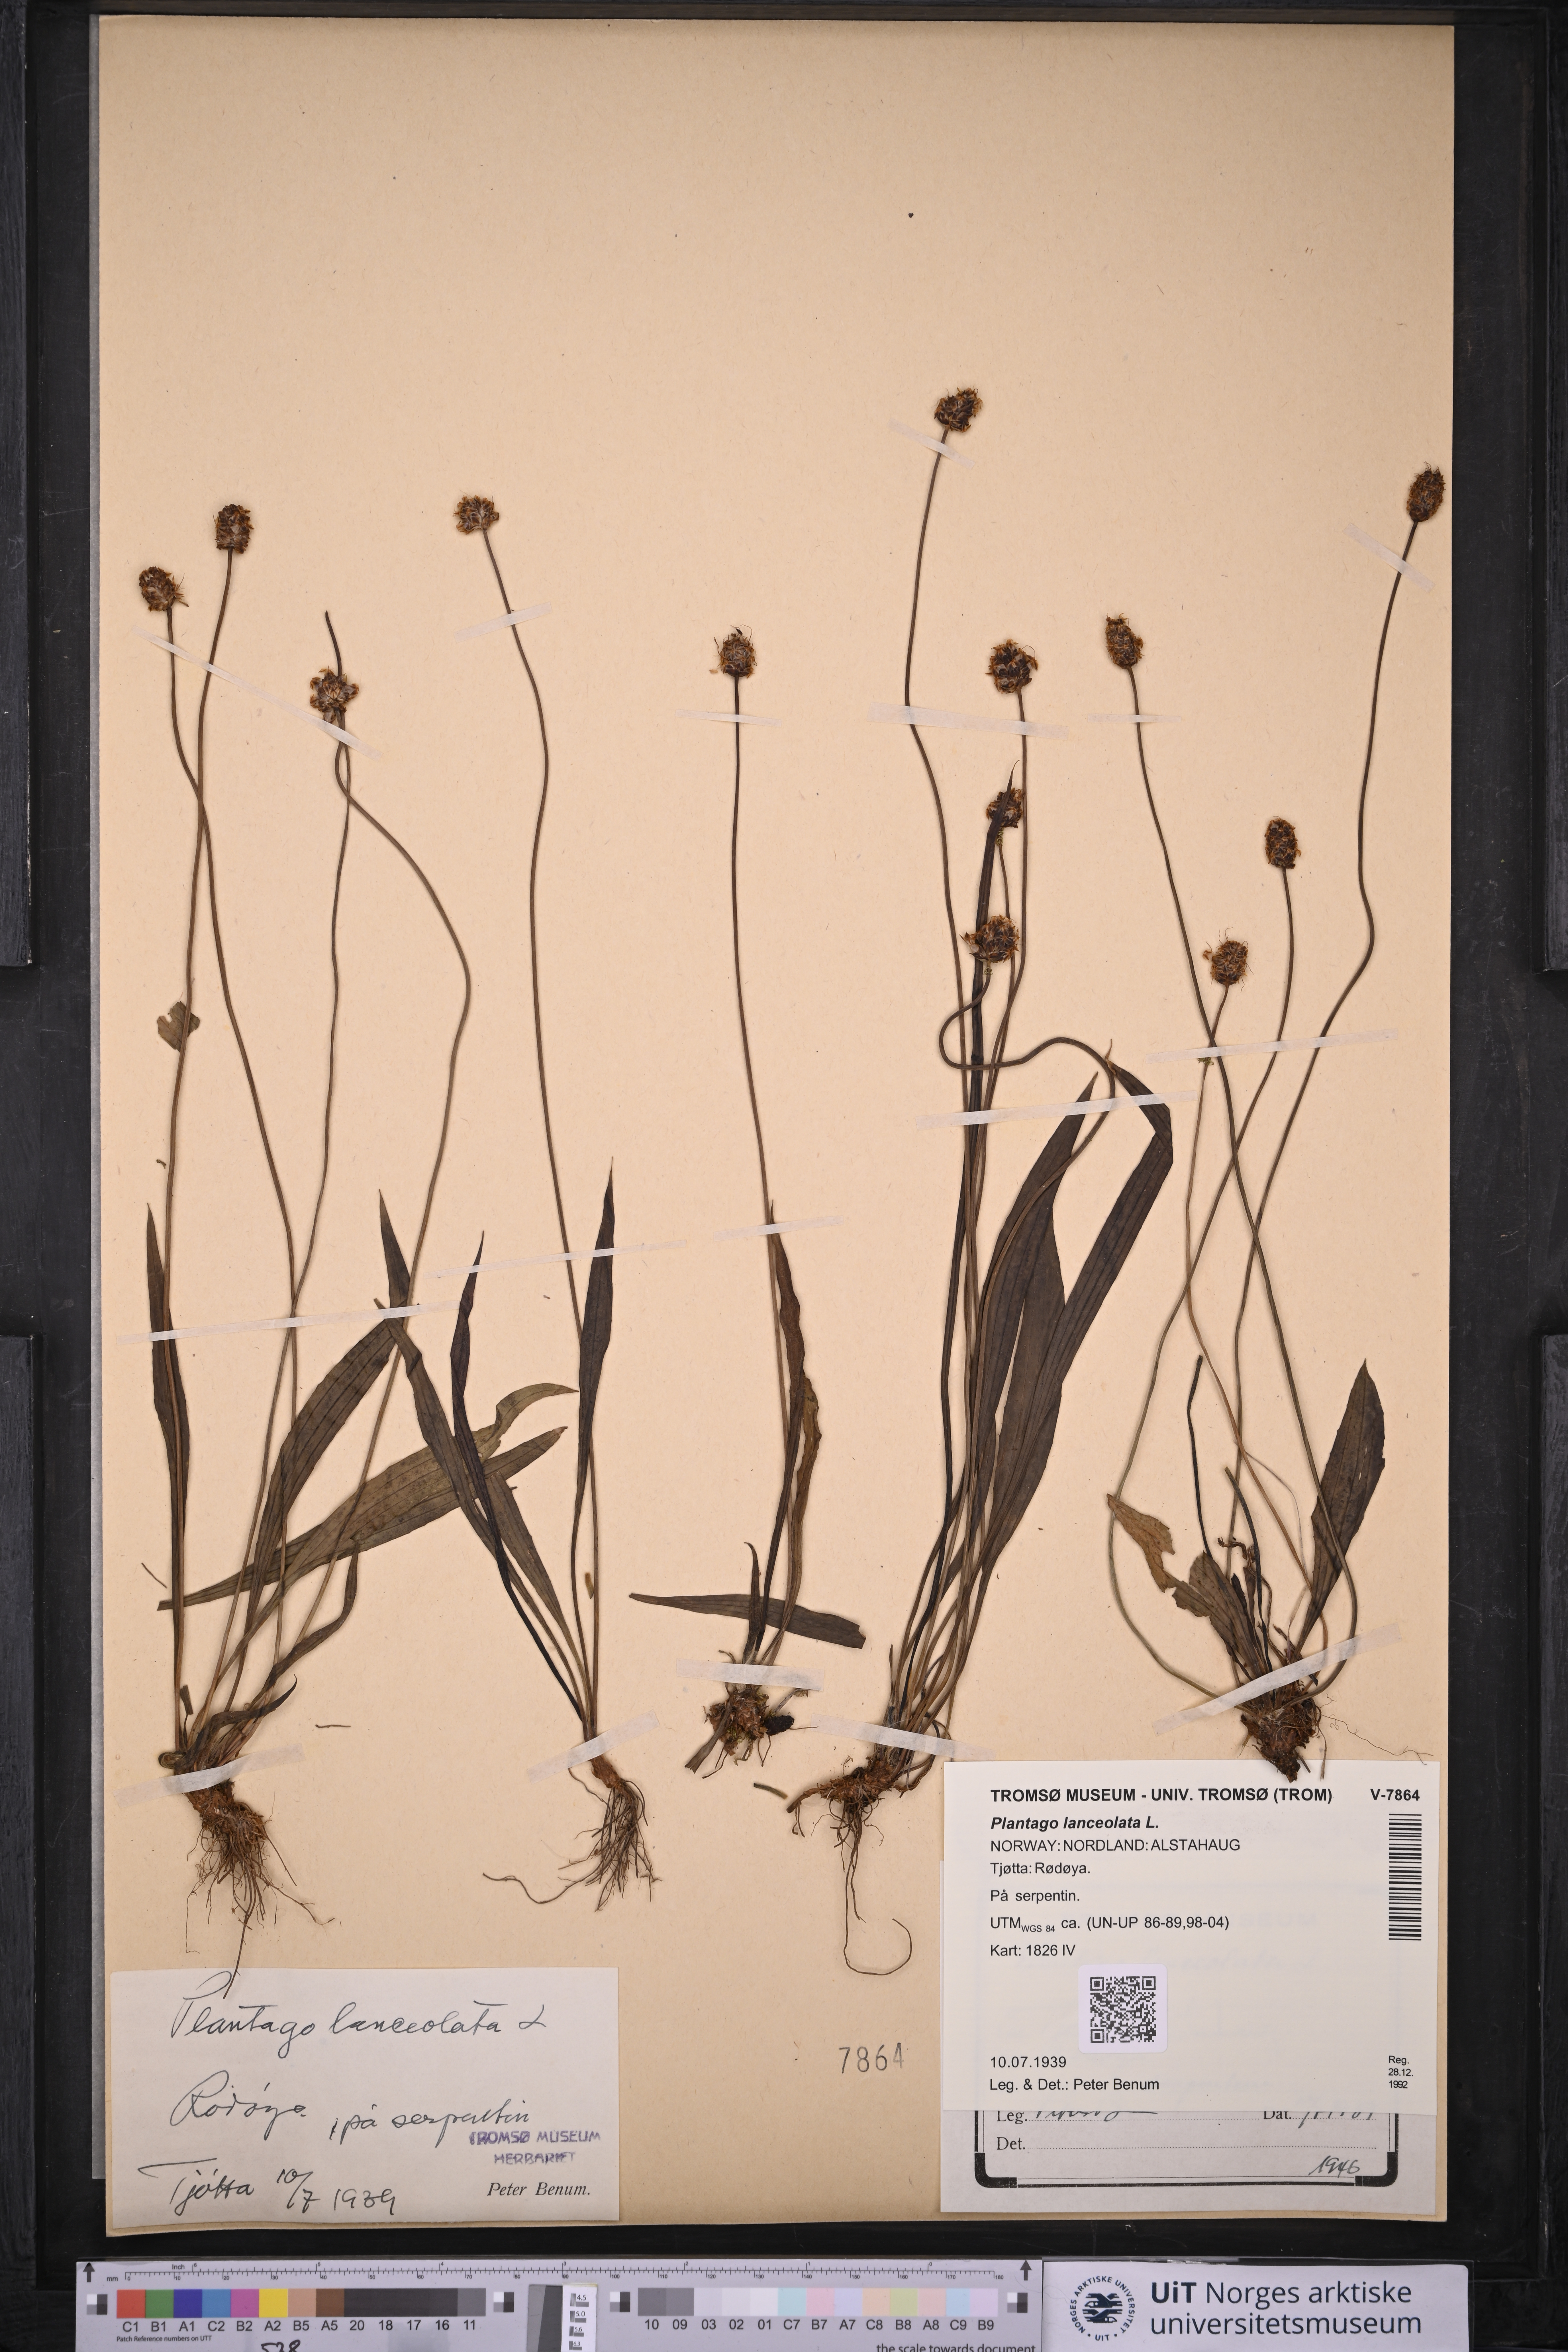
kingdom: Plantae
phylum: Tracheophyta
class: Magnoliopsida
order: Lamiales
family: Plantaginaceae
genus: Plantago
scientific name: Plantago lanceolata
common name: Ribwort plantain
